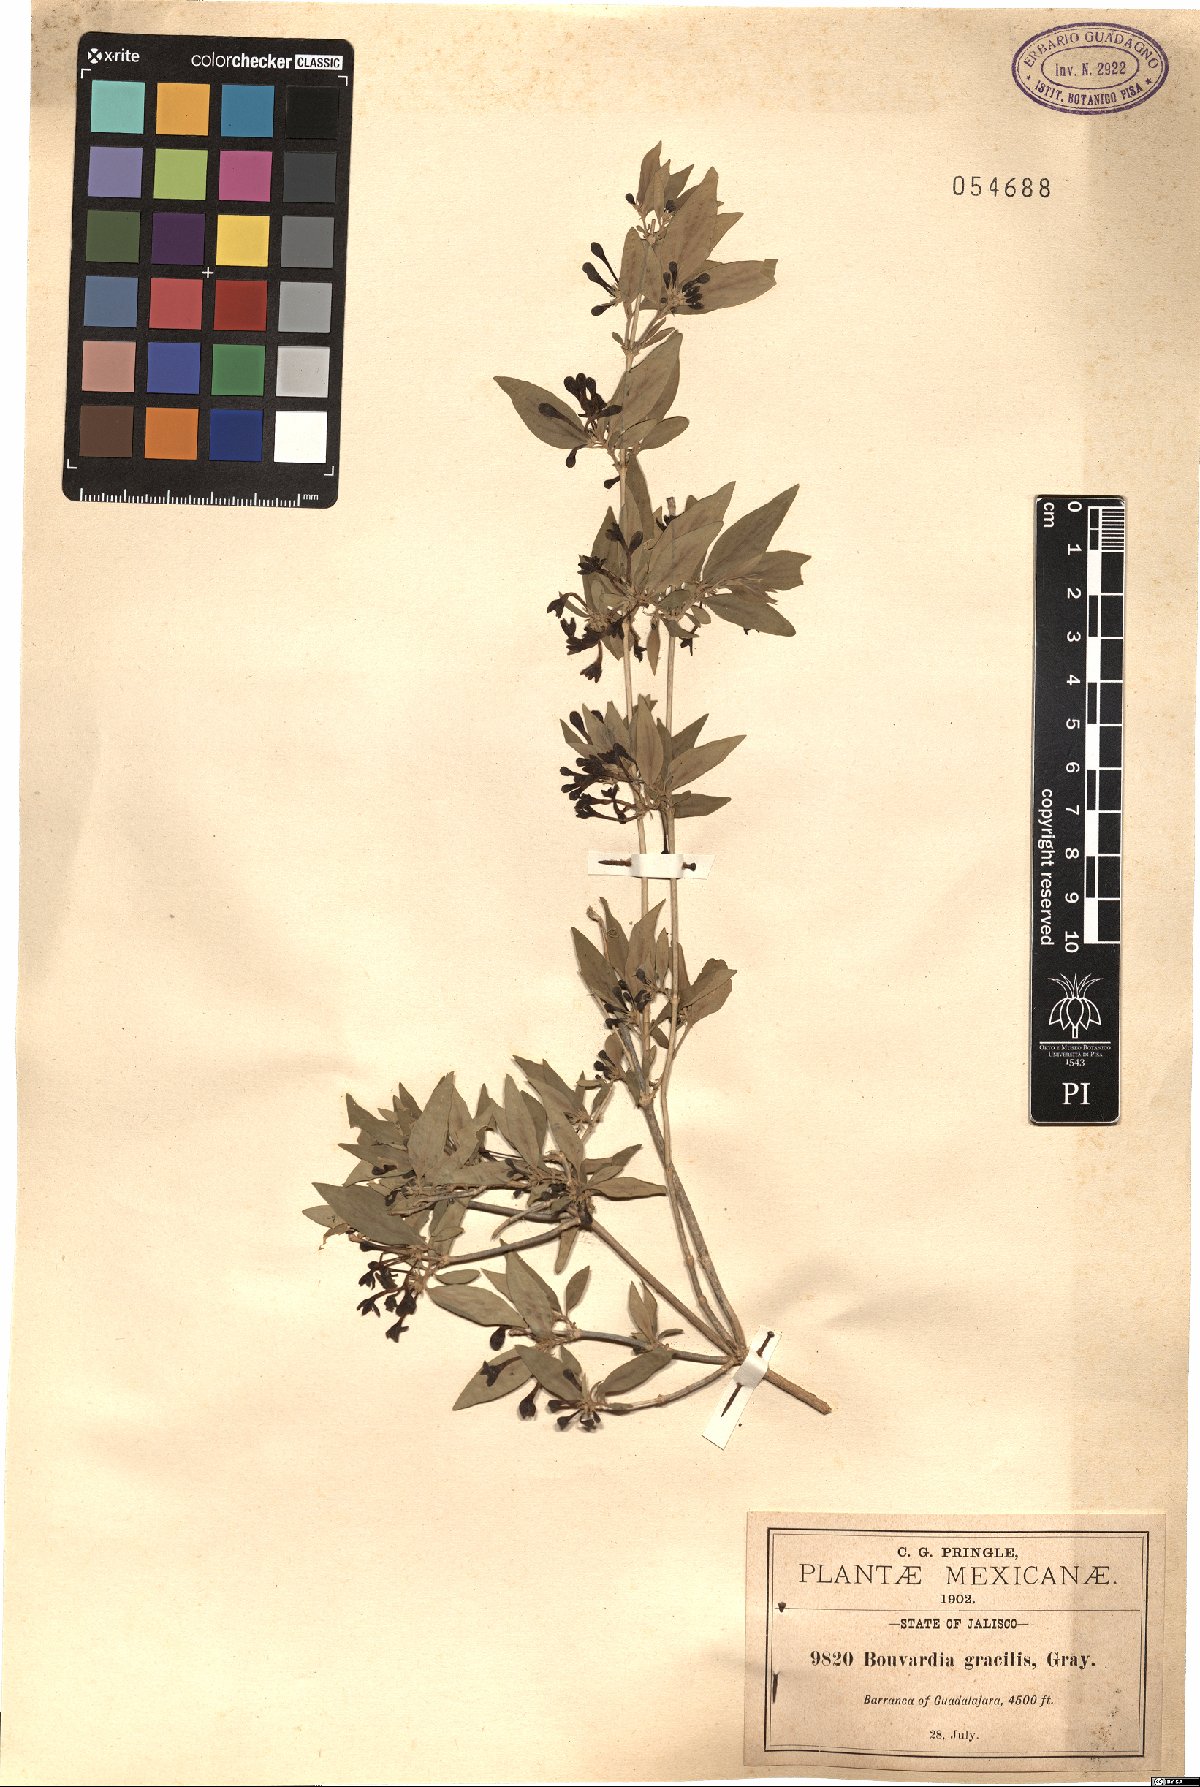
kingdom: Plantae
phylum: Tracheophyta
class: Magnoliopsida
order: Gentianales
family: Rubiaceae
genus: Bouvardia
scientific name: Bouvardia multiflora
